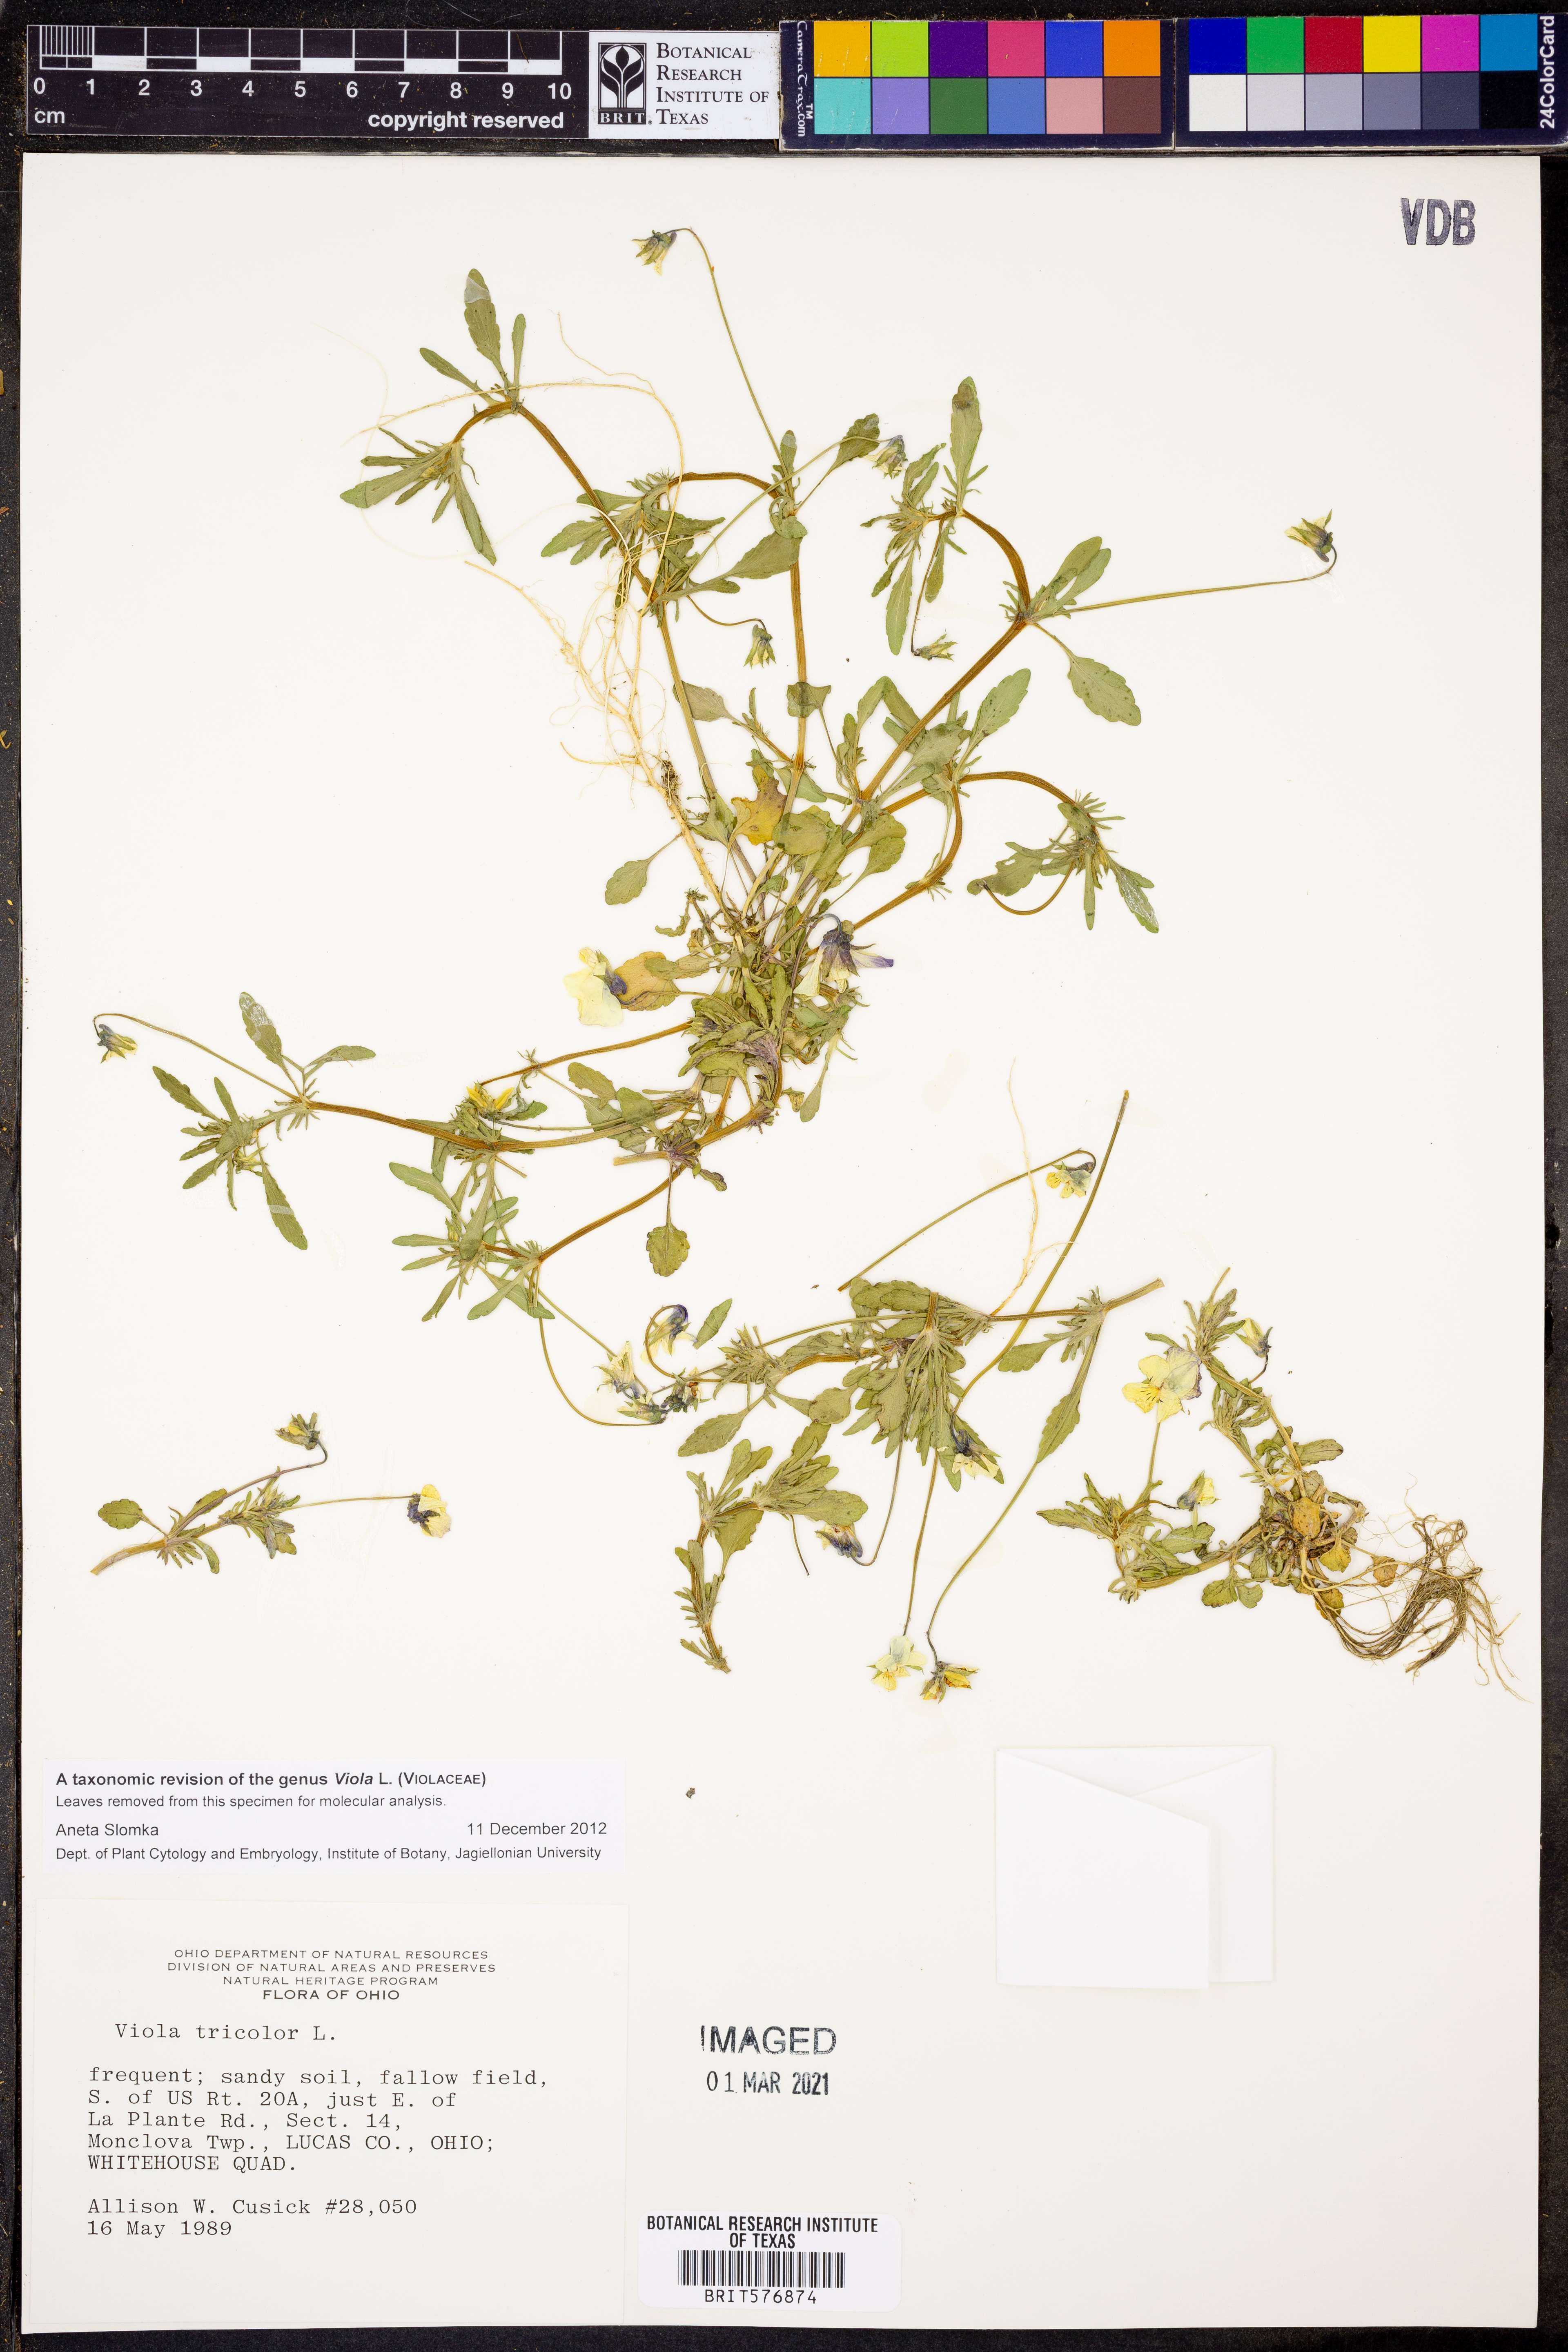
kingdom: Plantae
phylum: Tracheophyta
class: Magnoliopsida
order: Malpighiales
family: Violaceae
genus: Viola
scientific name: Viola tricolor
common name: Pansy
